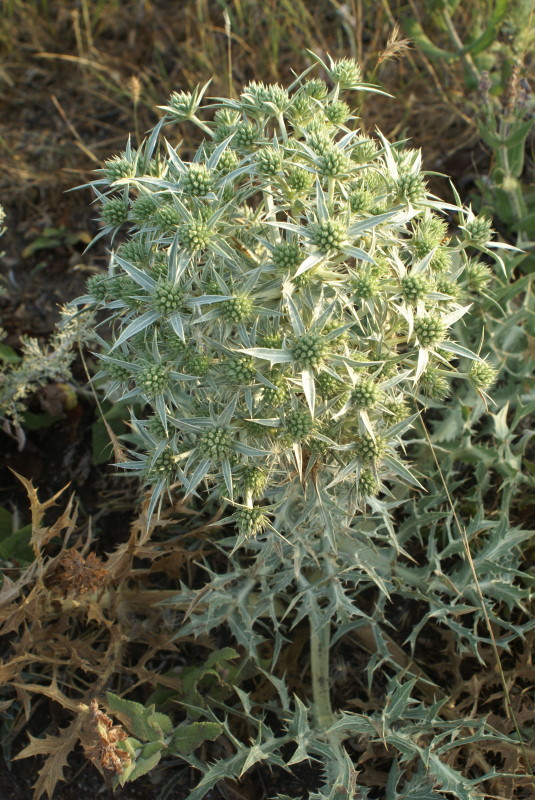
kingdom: Plantae
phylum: Tracheophyta
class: Magnoliopsida
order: Apiales
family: Apiaceae
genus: Eryngium
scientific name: Eryngium campestre
